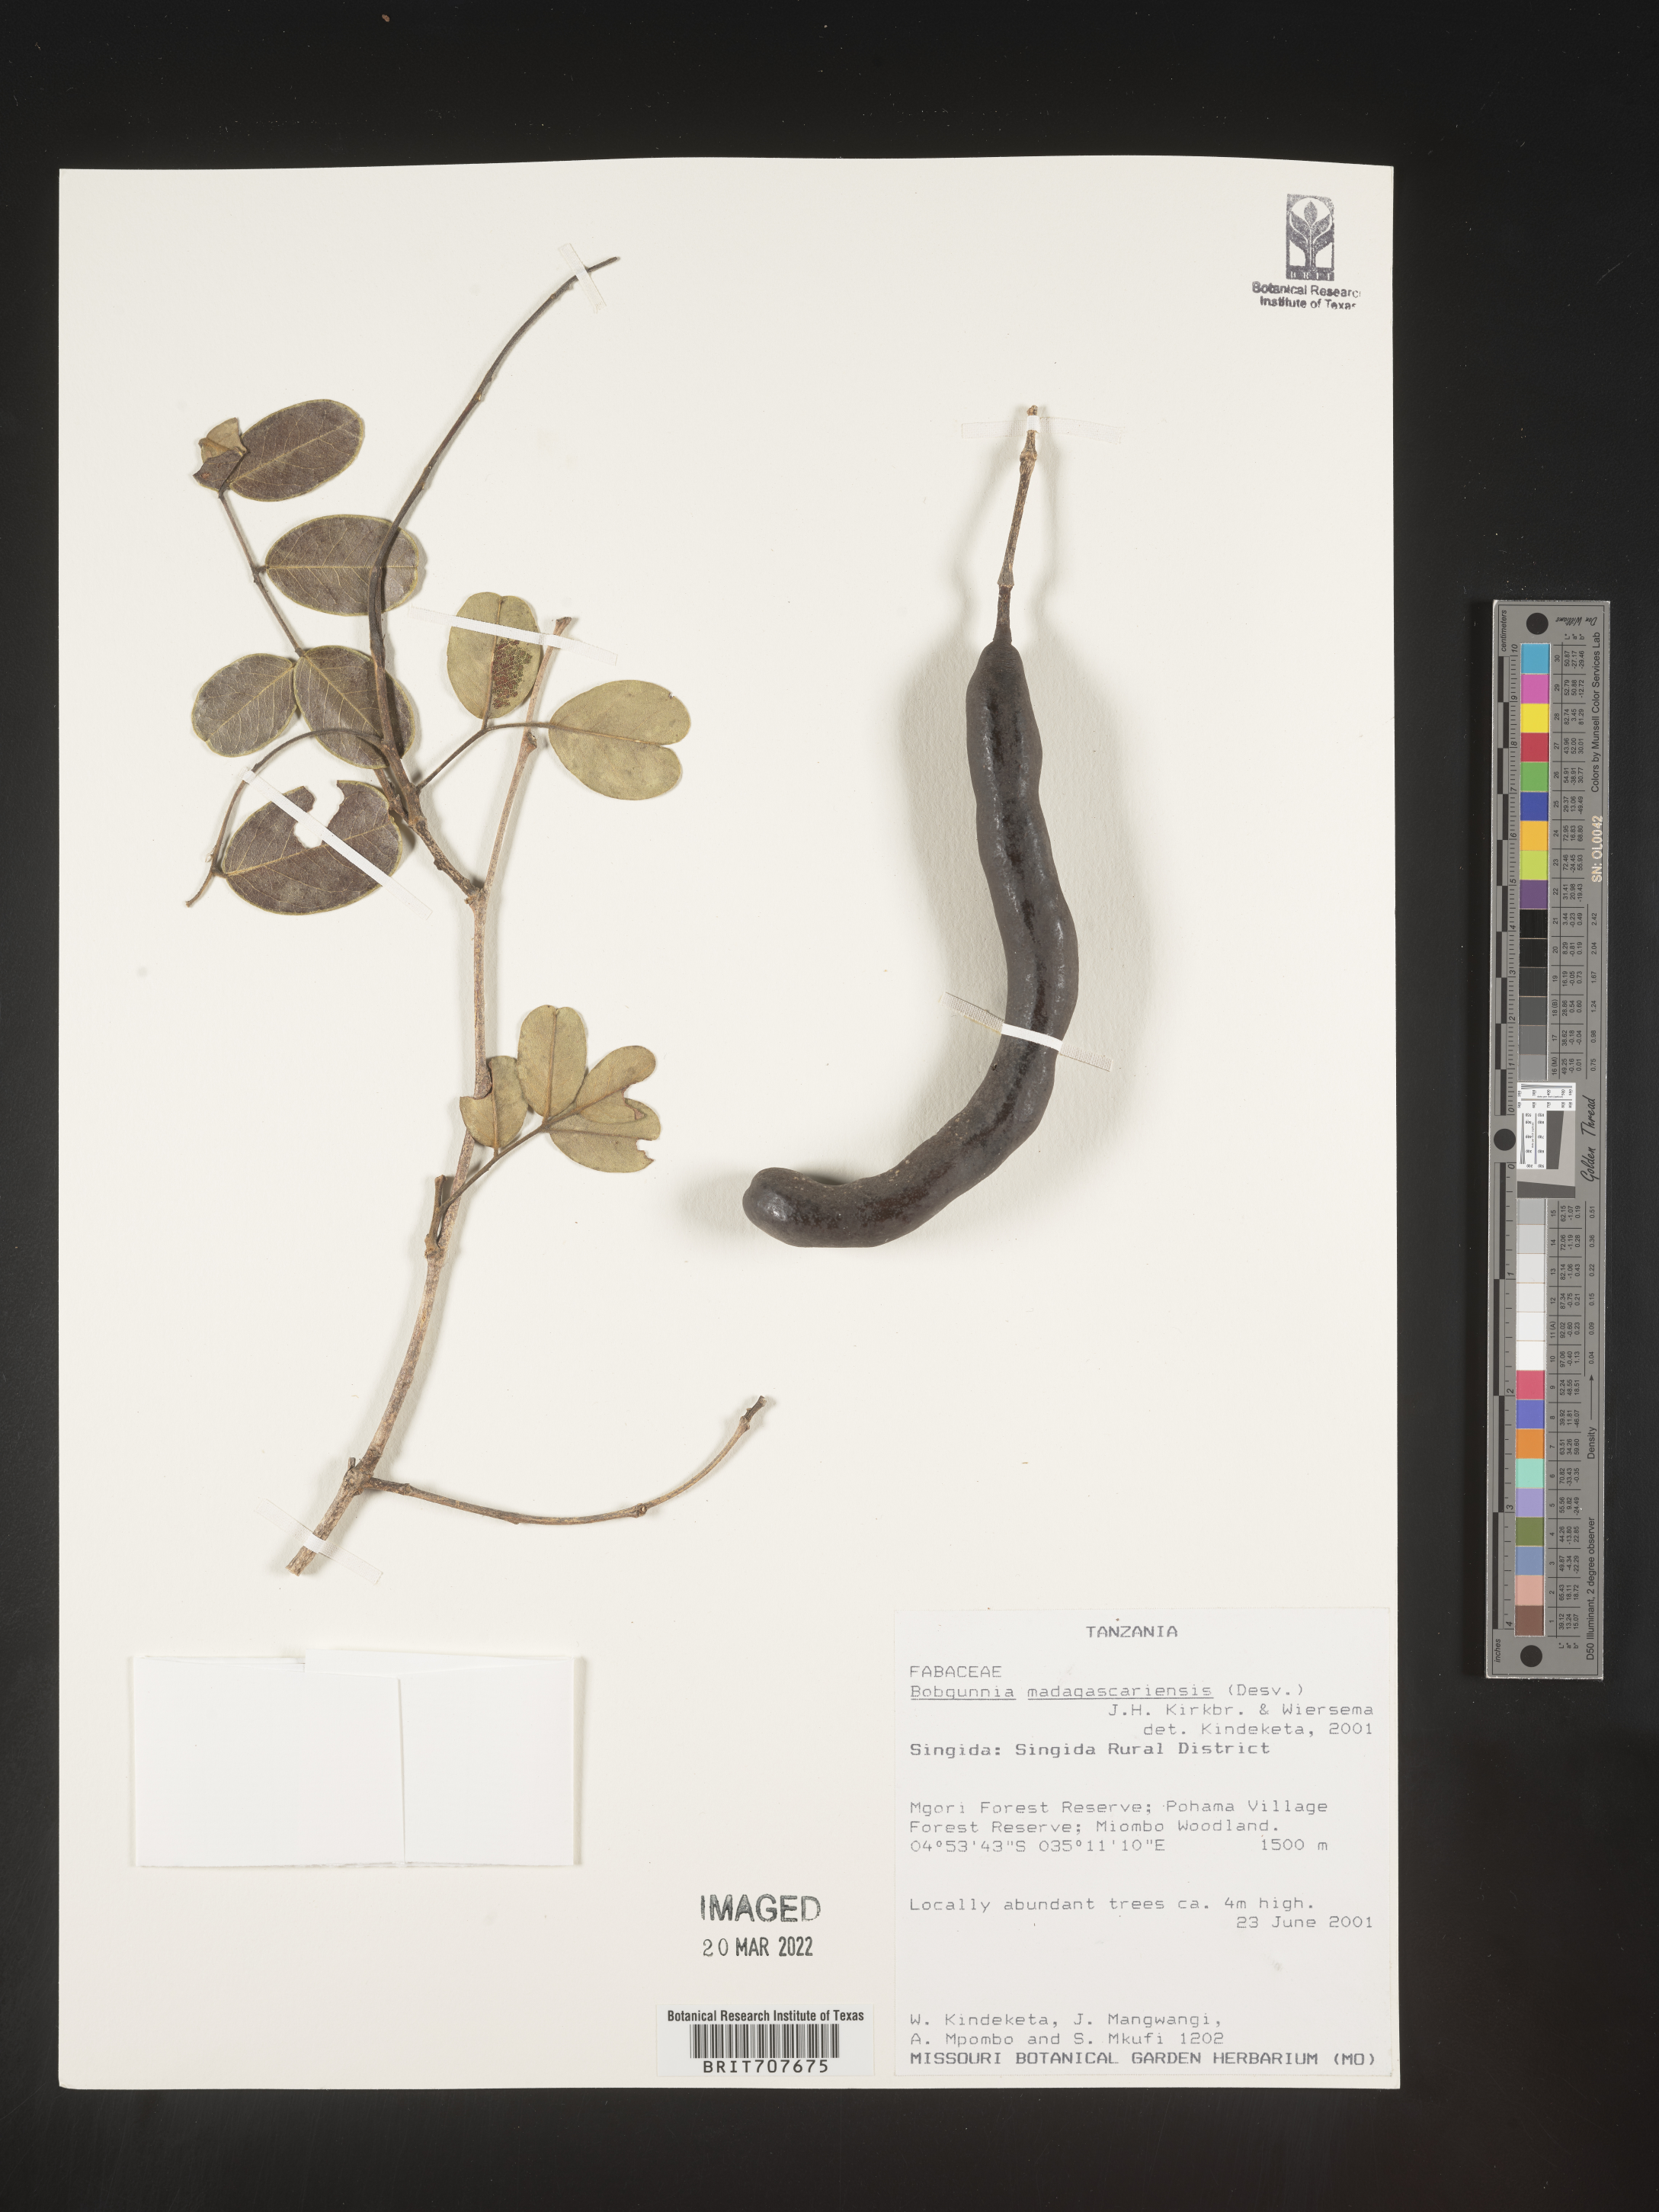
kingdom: Plantae
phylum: Tracheophyta
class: Magnoliopsida
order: Fabales
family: Fabaceae
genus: Bobgunnia
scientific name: Bobgunnia
